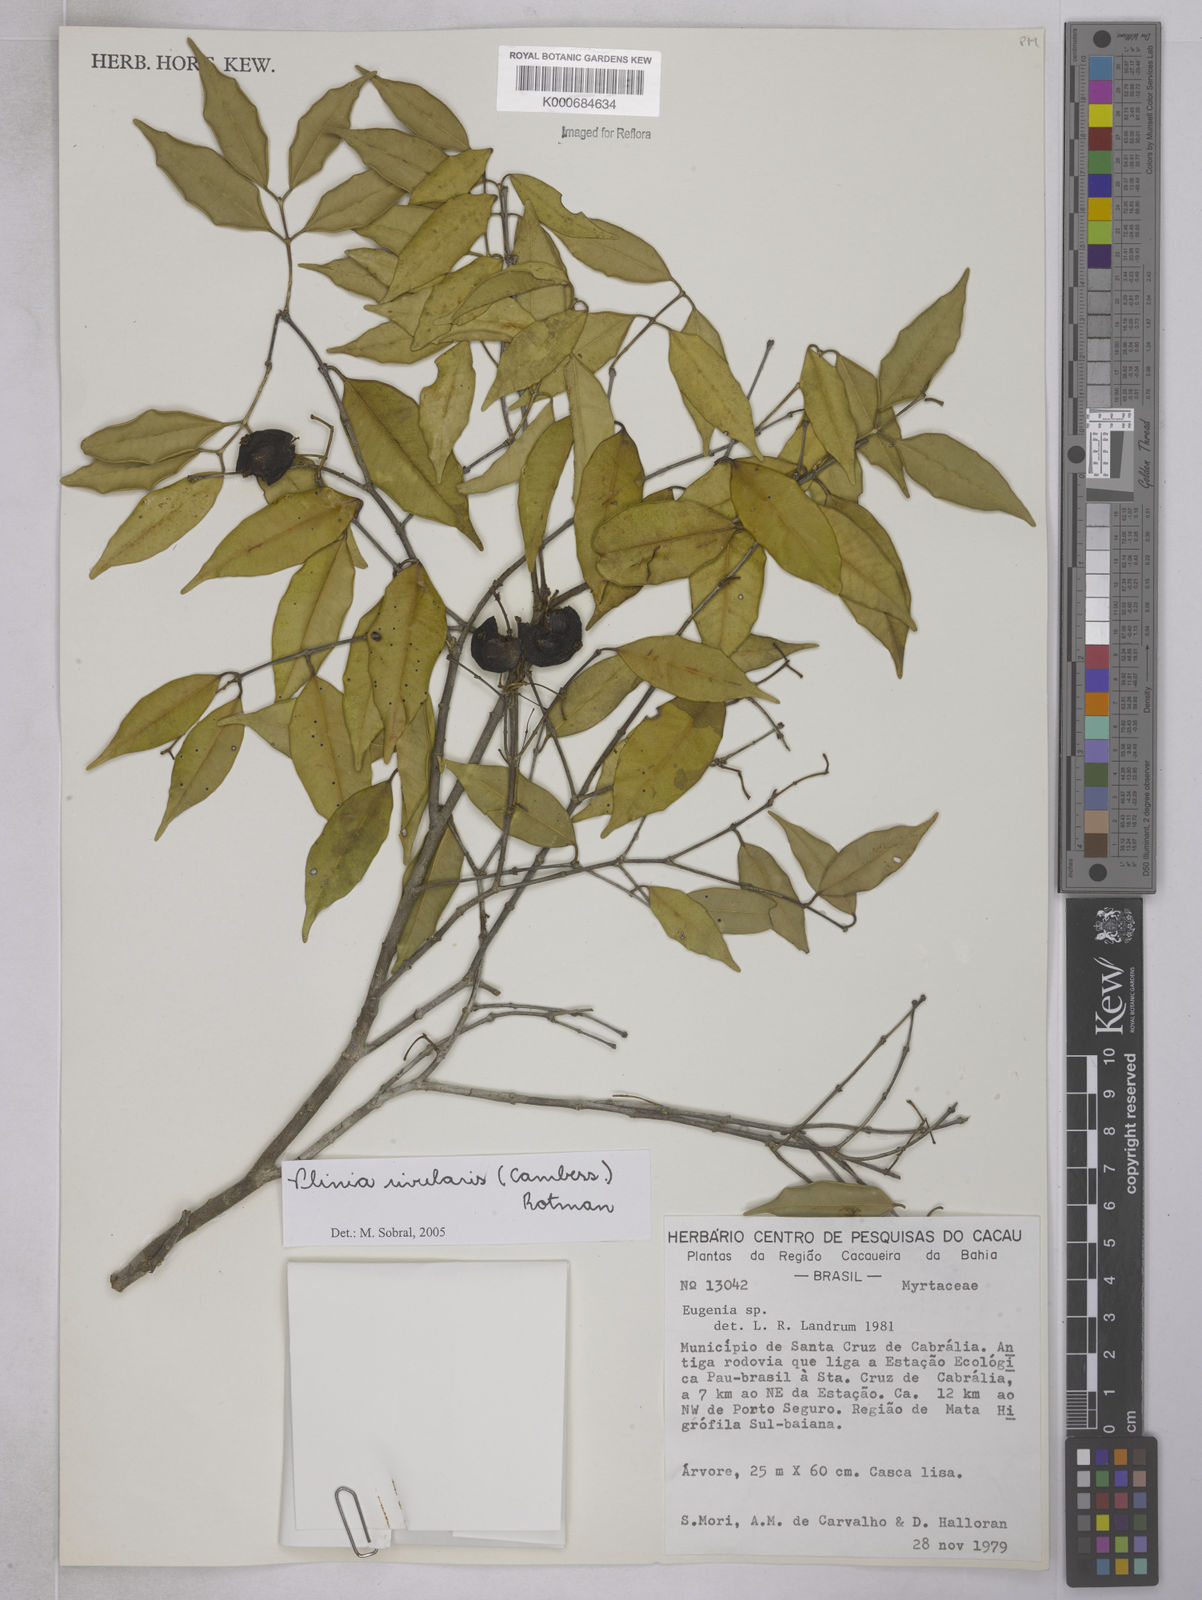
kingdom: Plantae
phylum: Tracheophyta
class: Magnoliopsida
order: Myrtales
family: Myrtaceae
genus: Plinia
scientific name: Plinia rivularis
